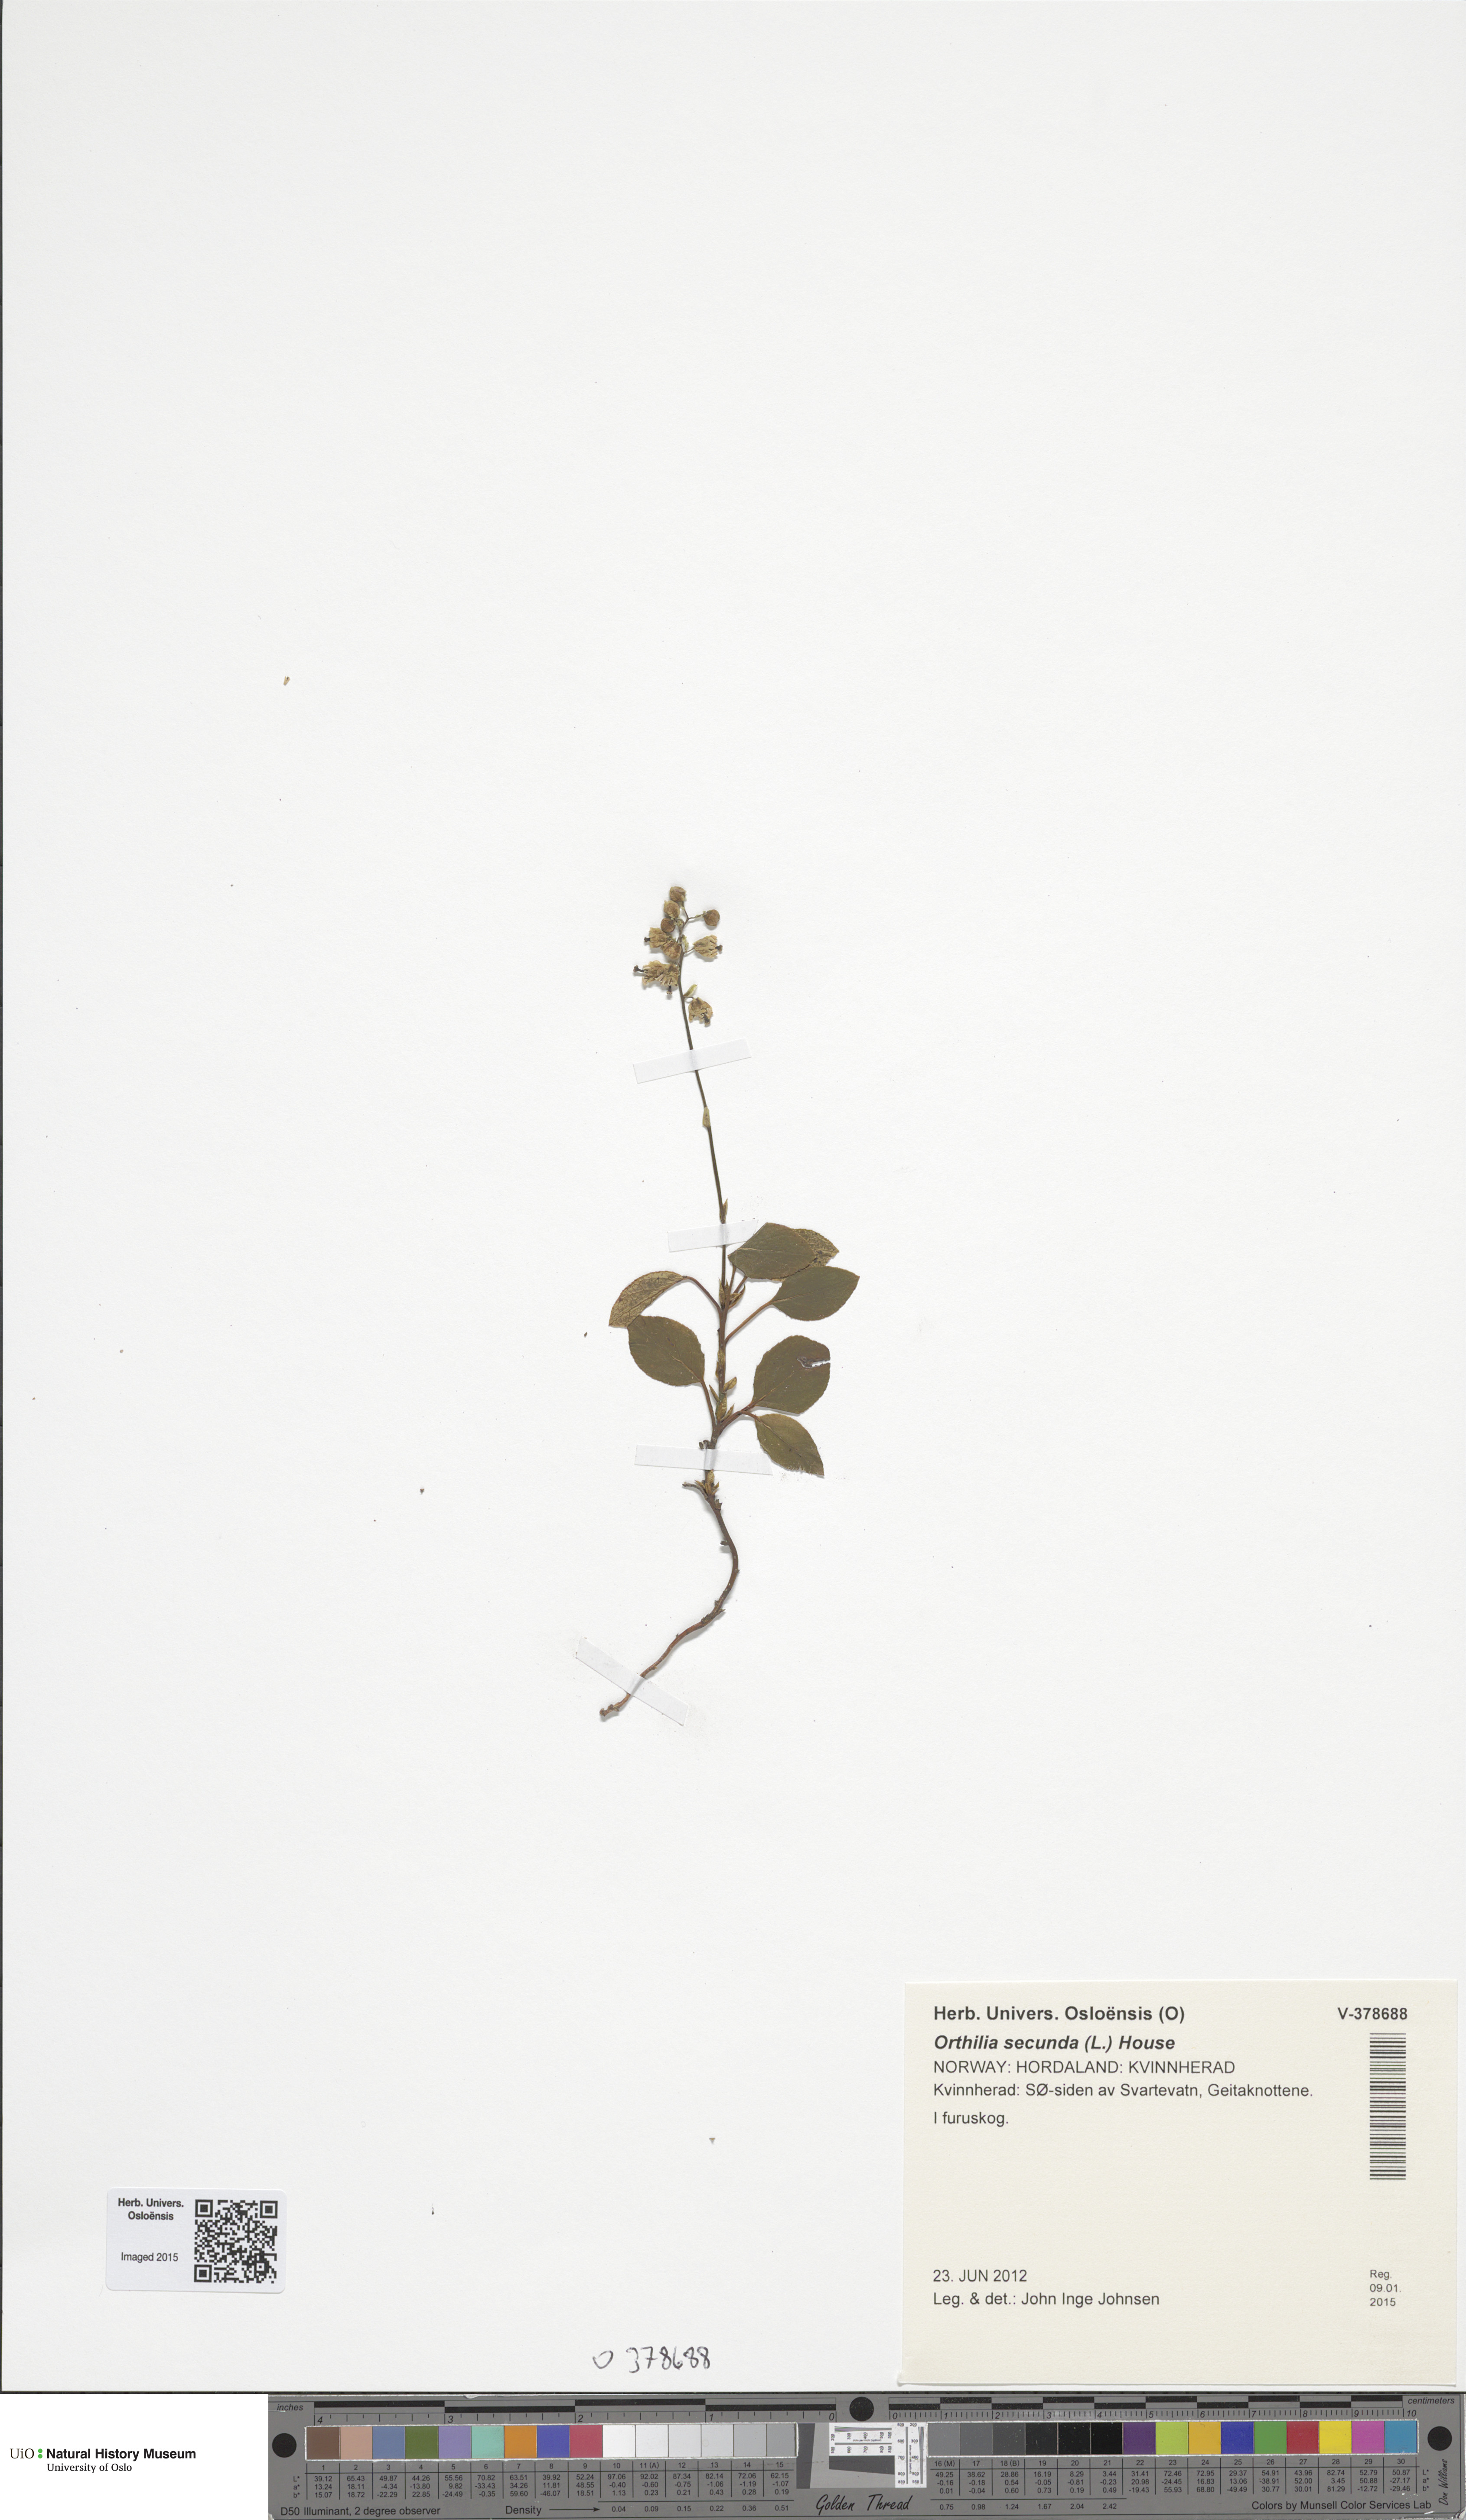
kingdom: Plantae
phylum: Tracheophyta
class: Magnoliopsida
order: Ericales
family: Ericaceae
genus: Orthilia
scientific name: Orthilia secunda
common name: One-sided orthilia
